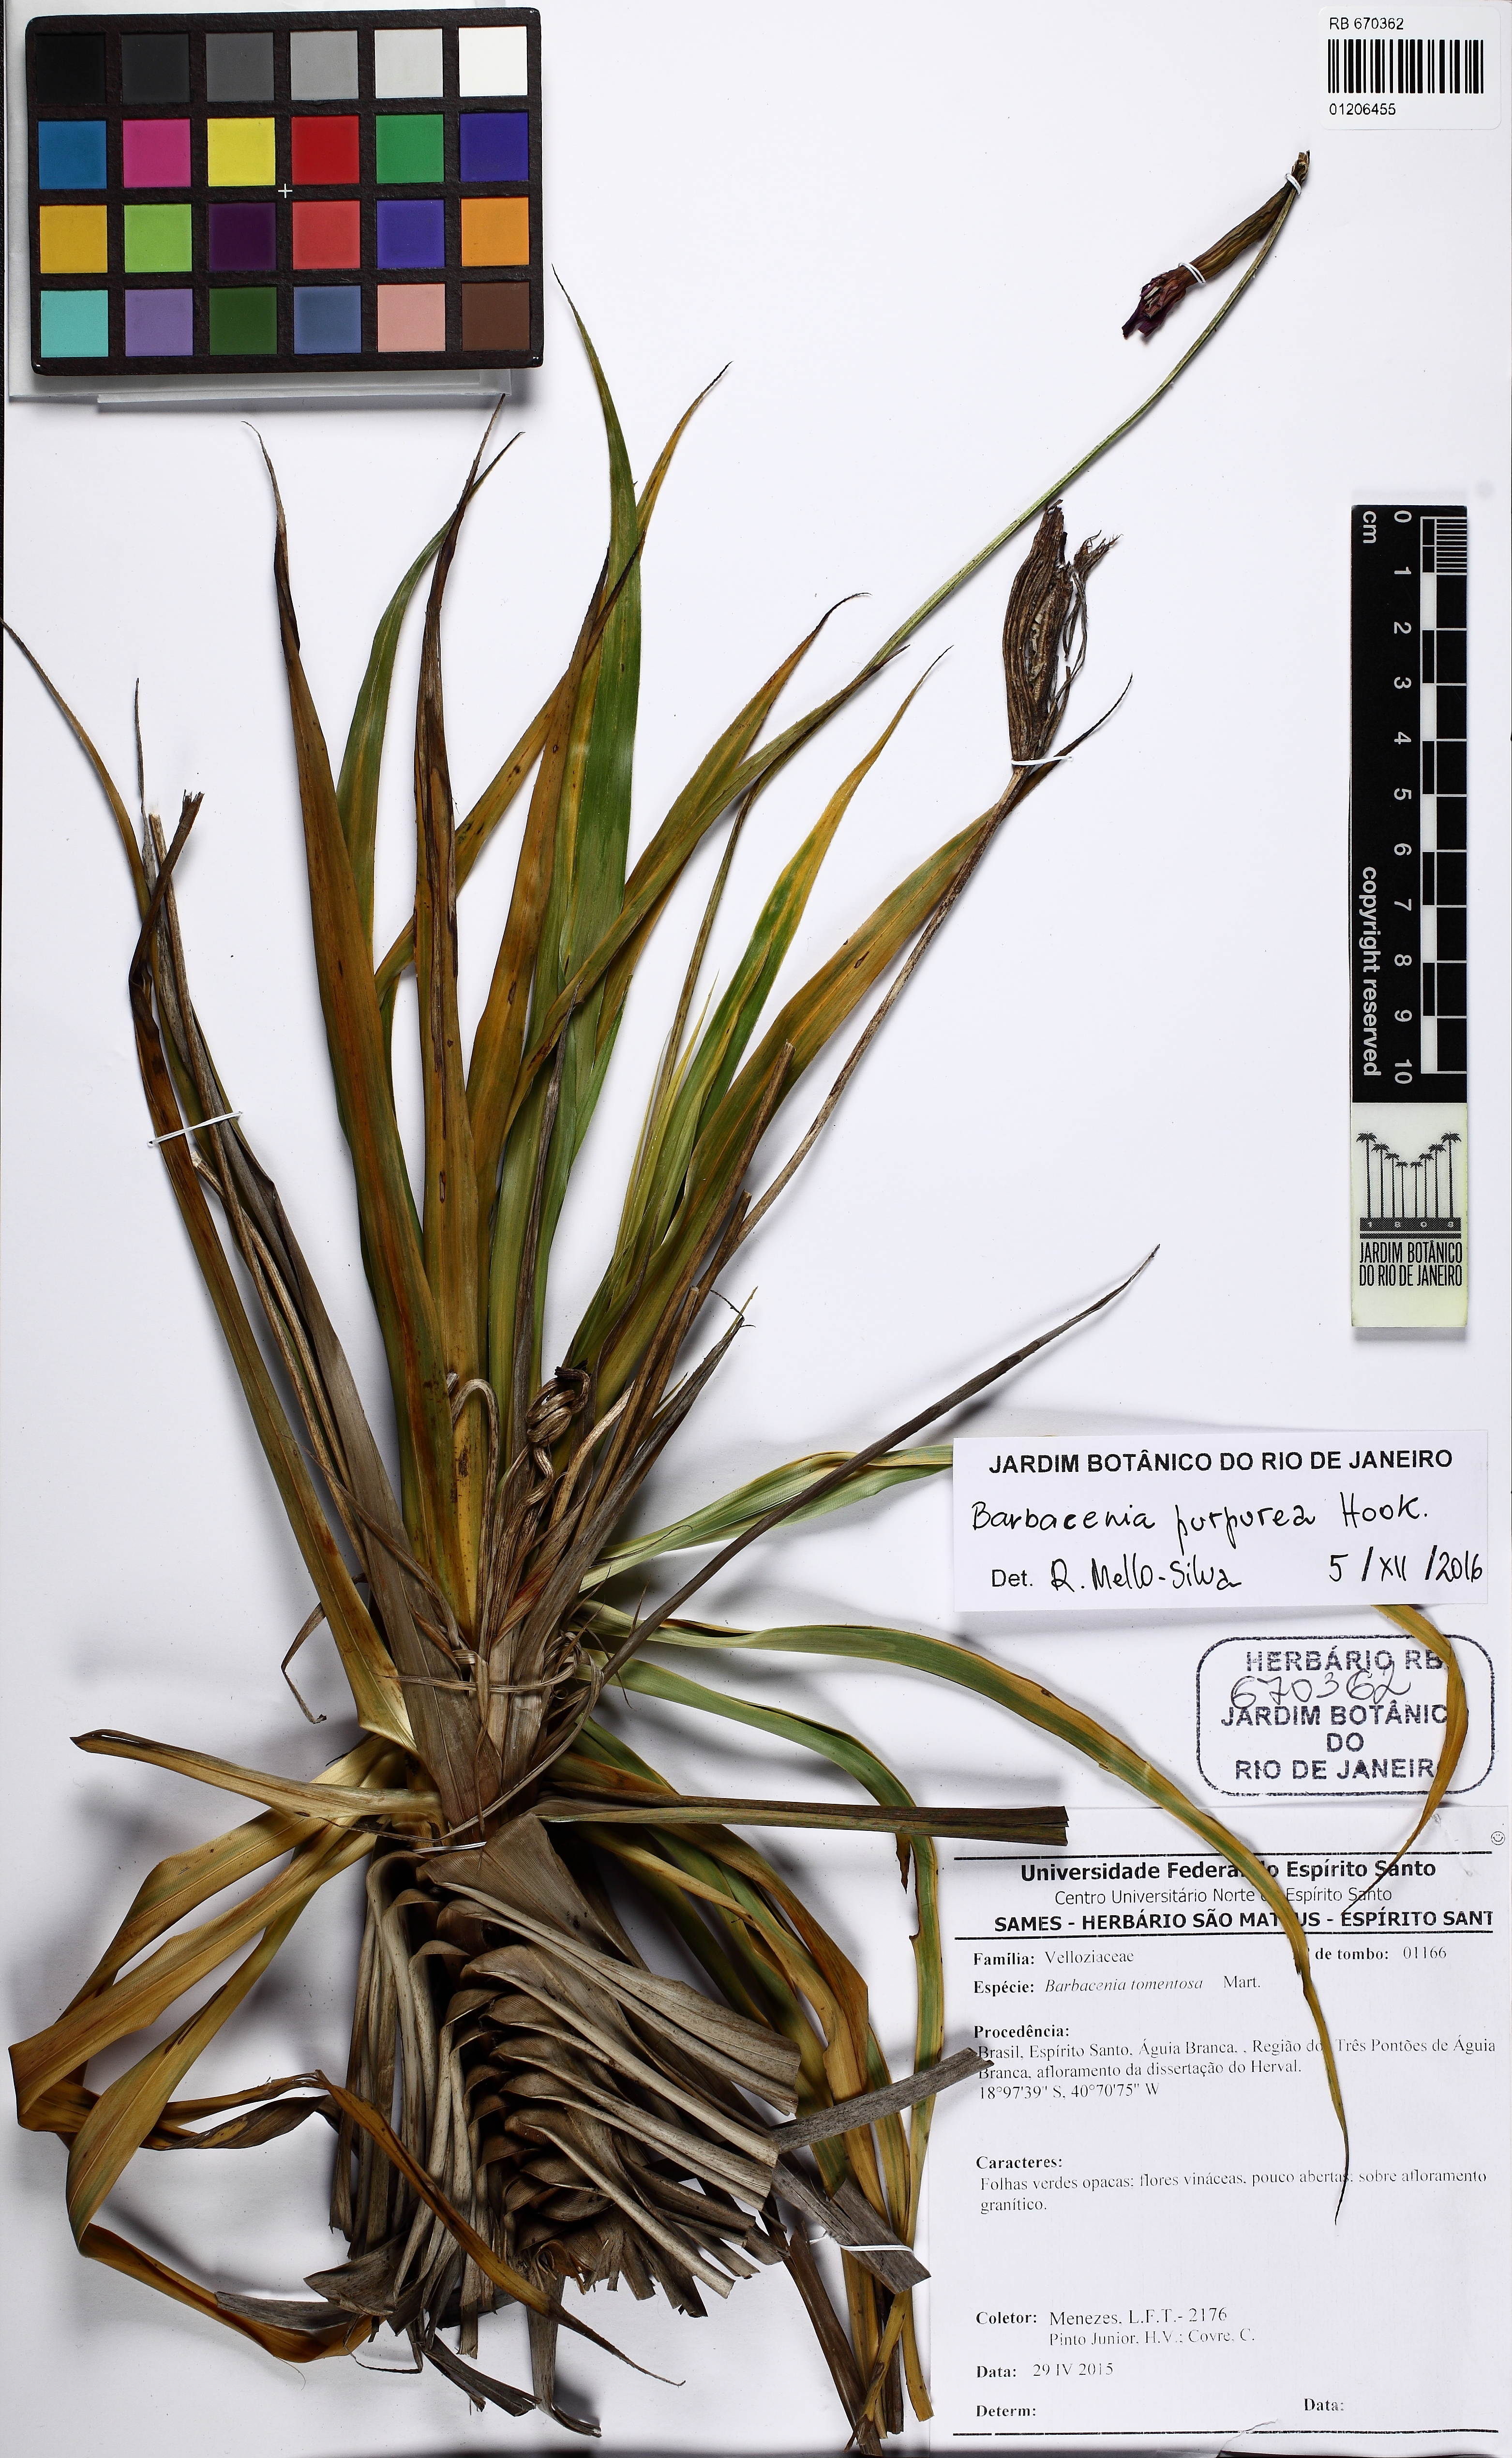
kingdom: Plantae
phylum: Tracheophyta
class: Liliopsida
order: Pandanales
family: Velloziaceae
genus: Barbacenia
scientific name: Barbacenia purpurea
